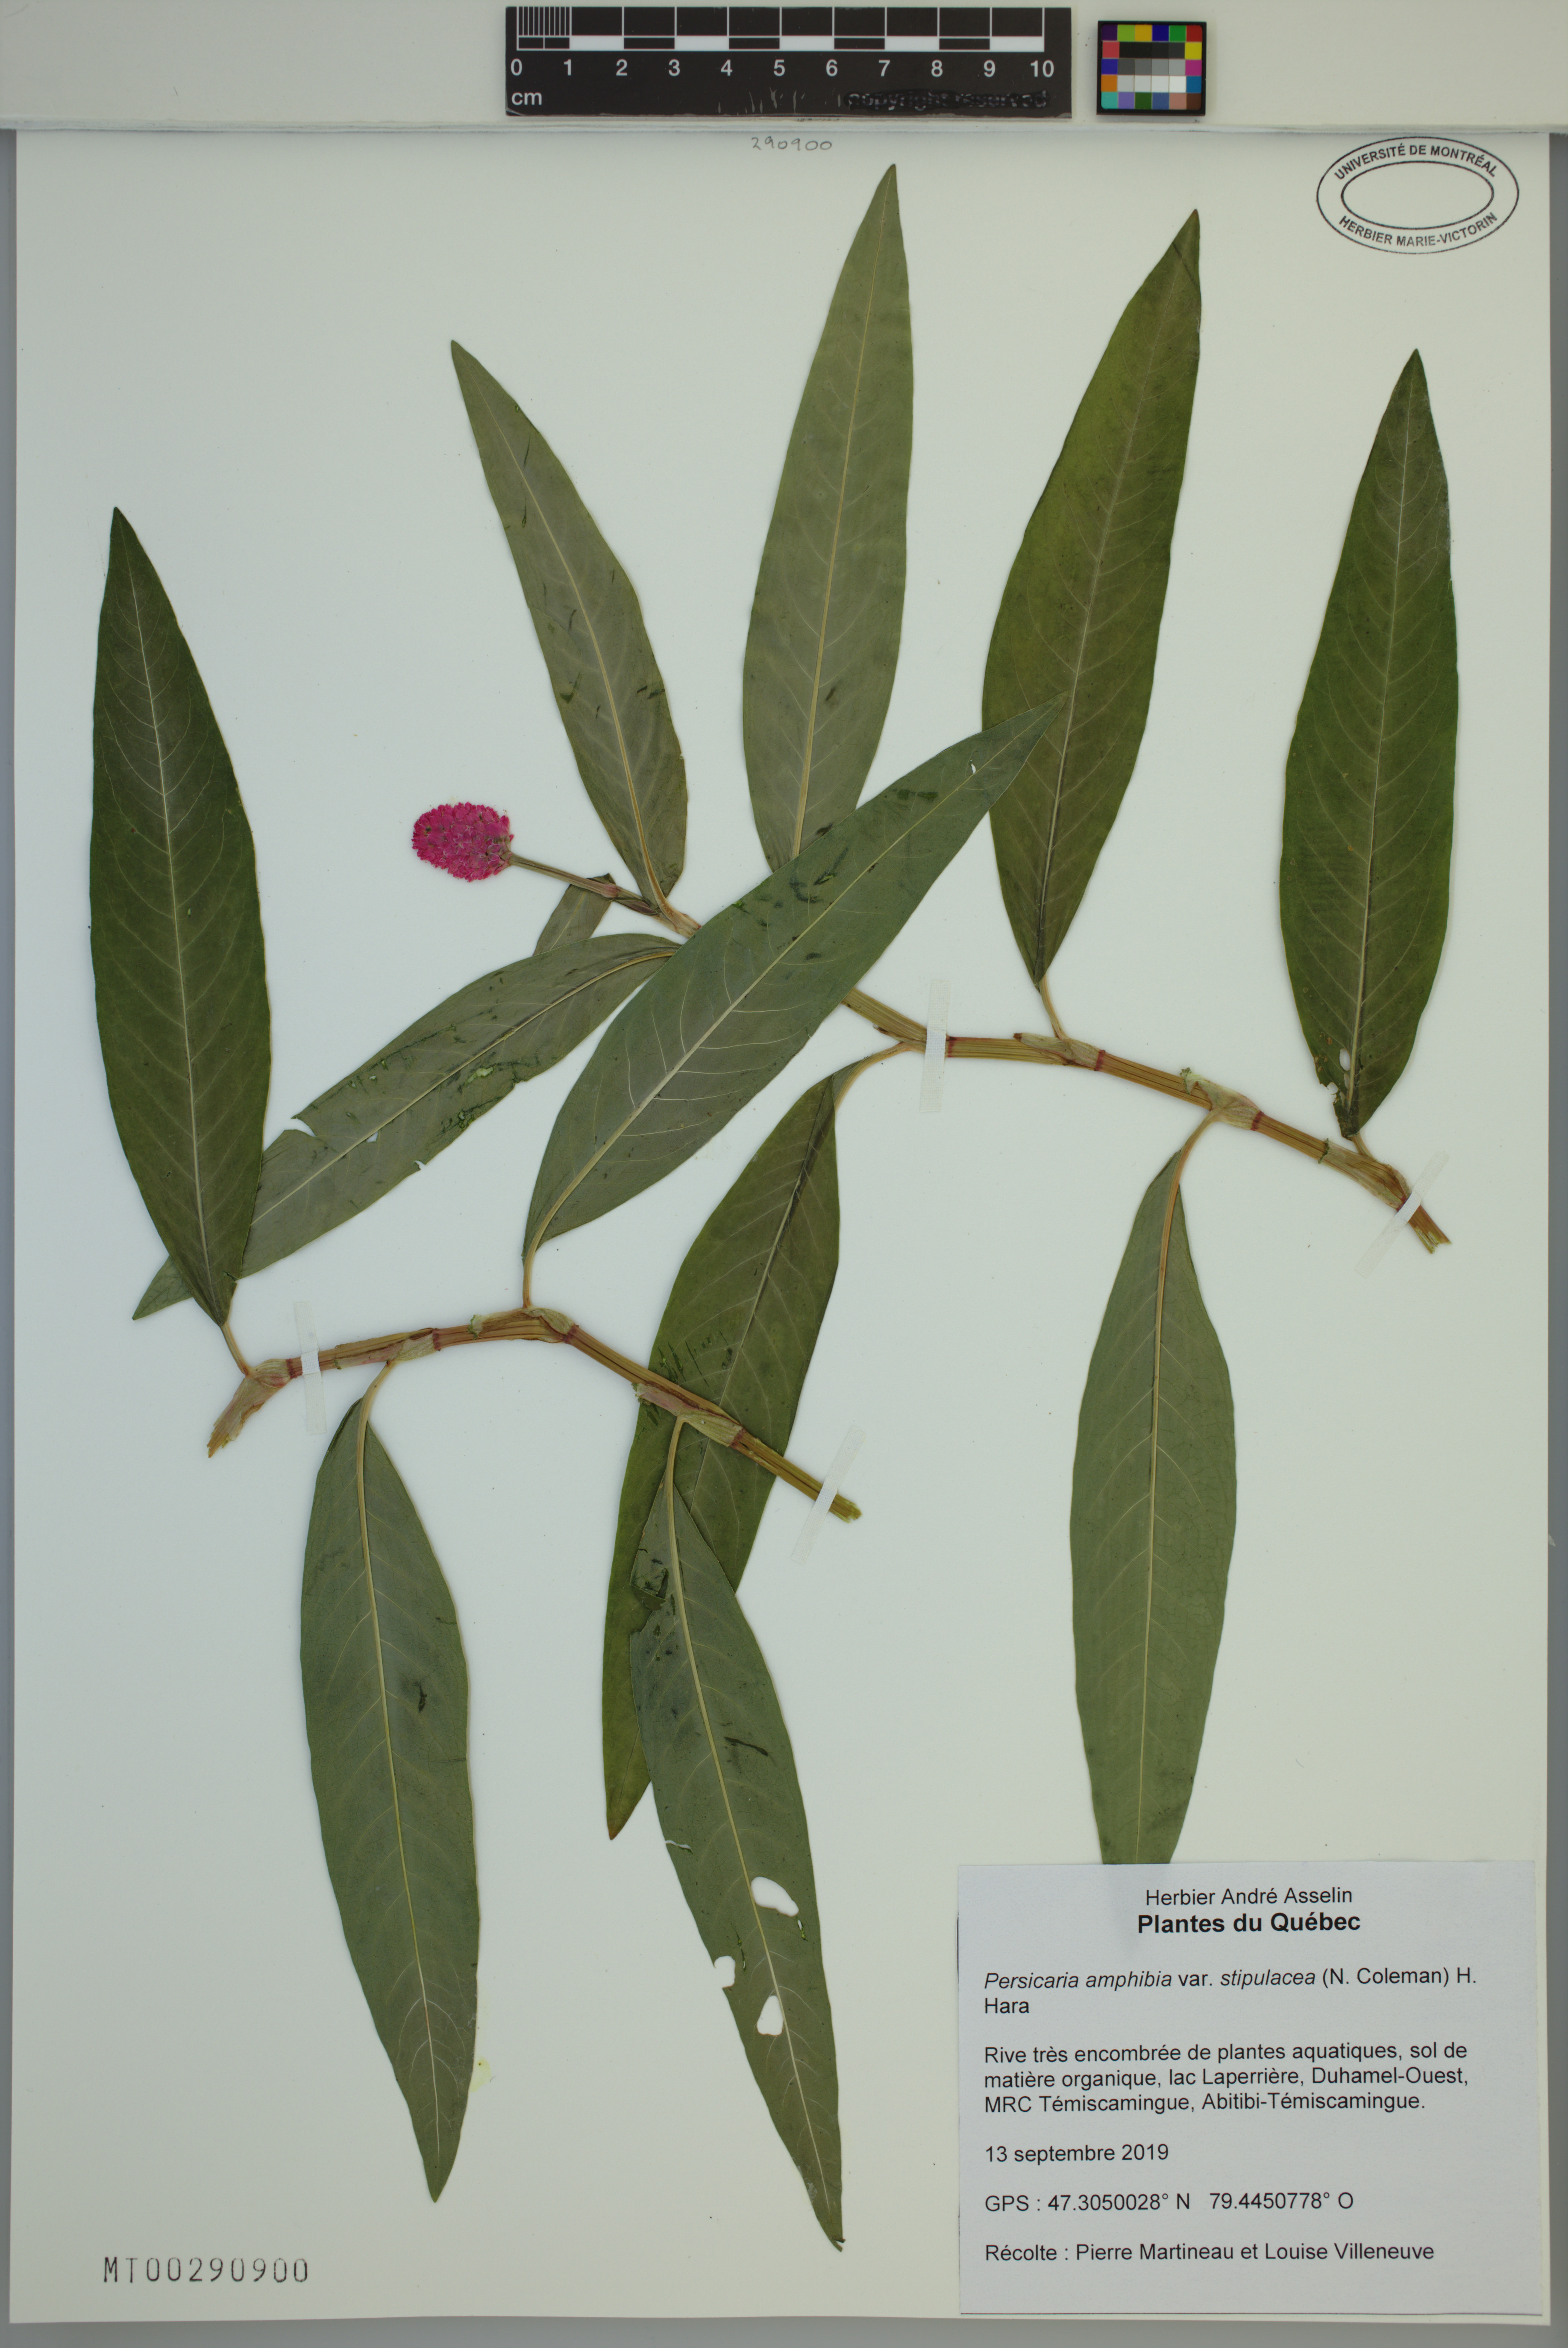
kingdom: Plantae
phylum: Tracheophyta
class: Magnoliopsida
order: Caryophyllales
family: Polygonaceae
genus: Persicaria
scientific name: Persicaria amphibia
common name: Amphibious bistort
